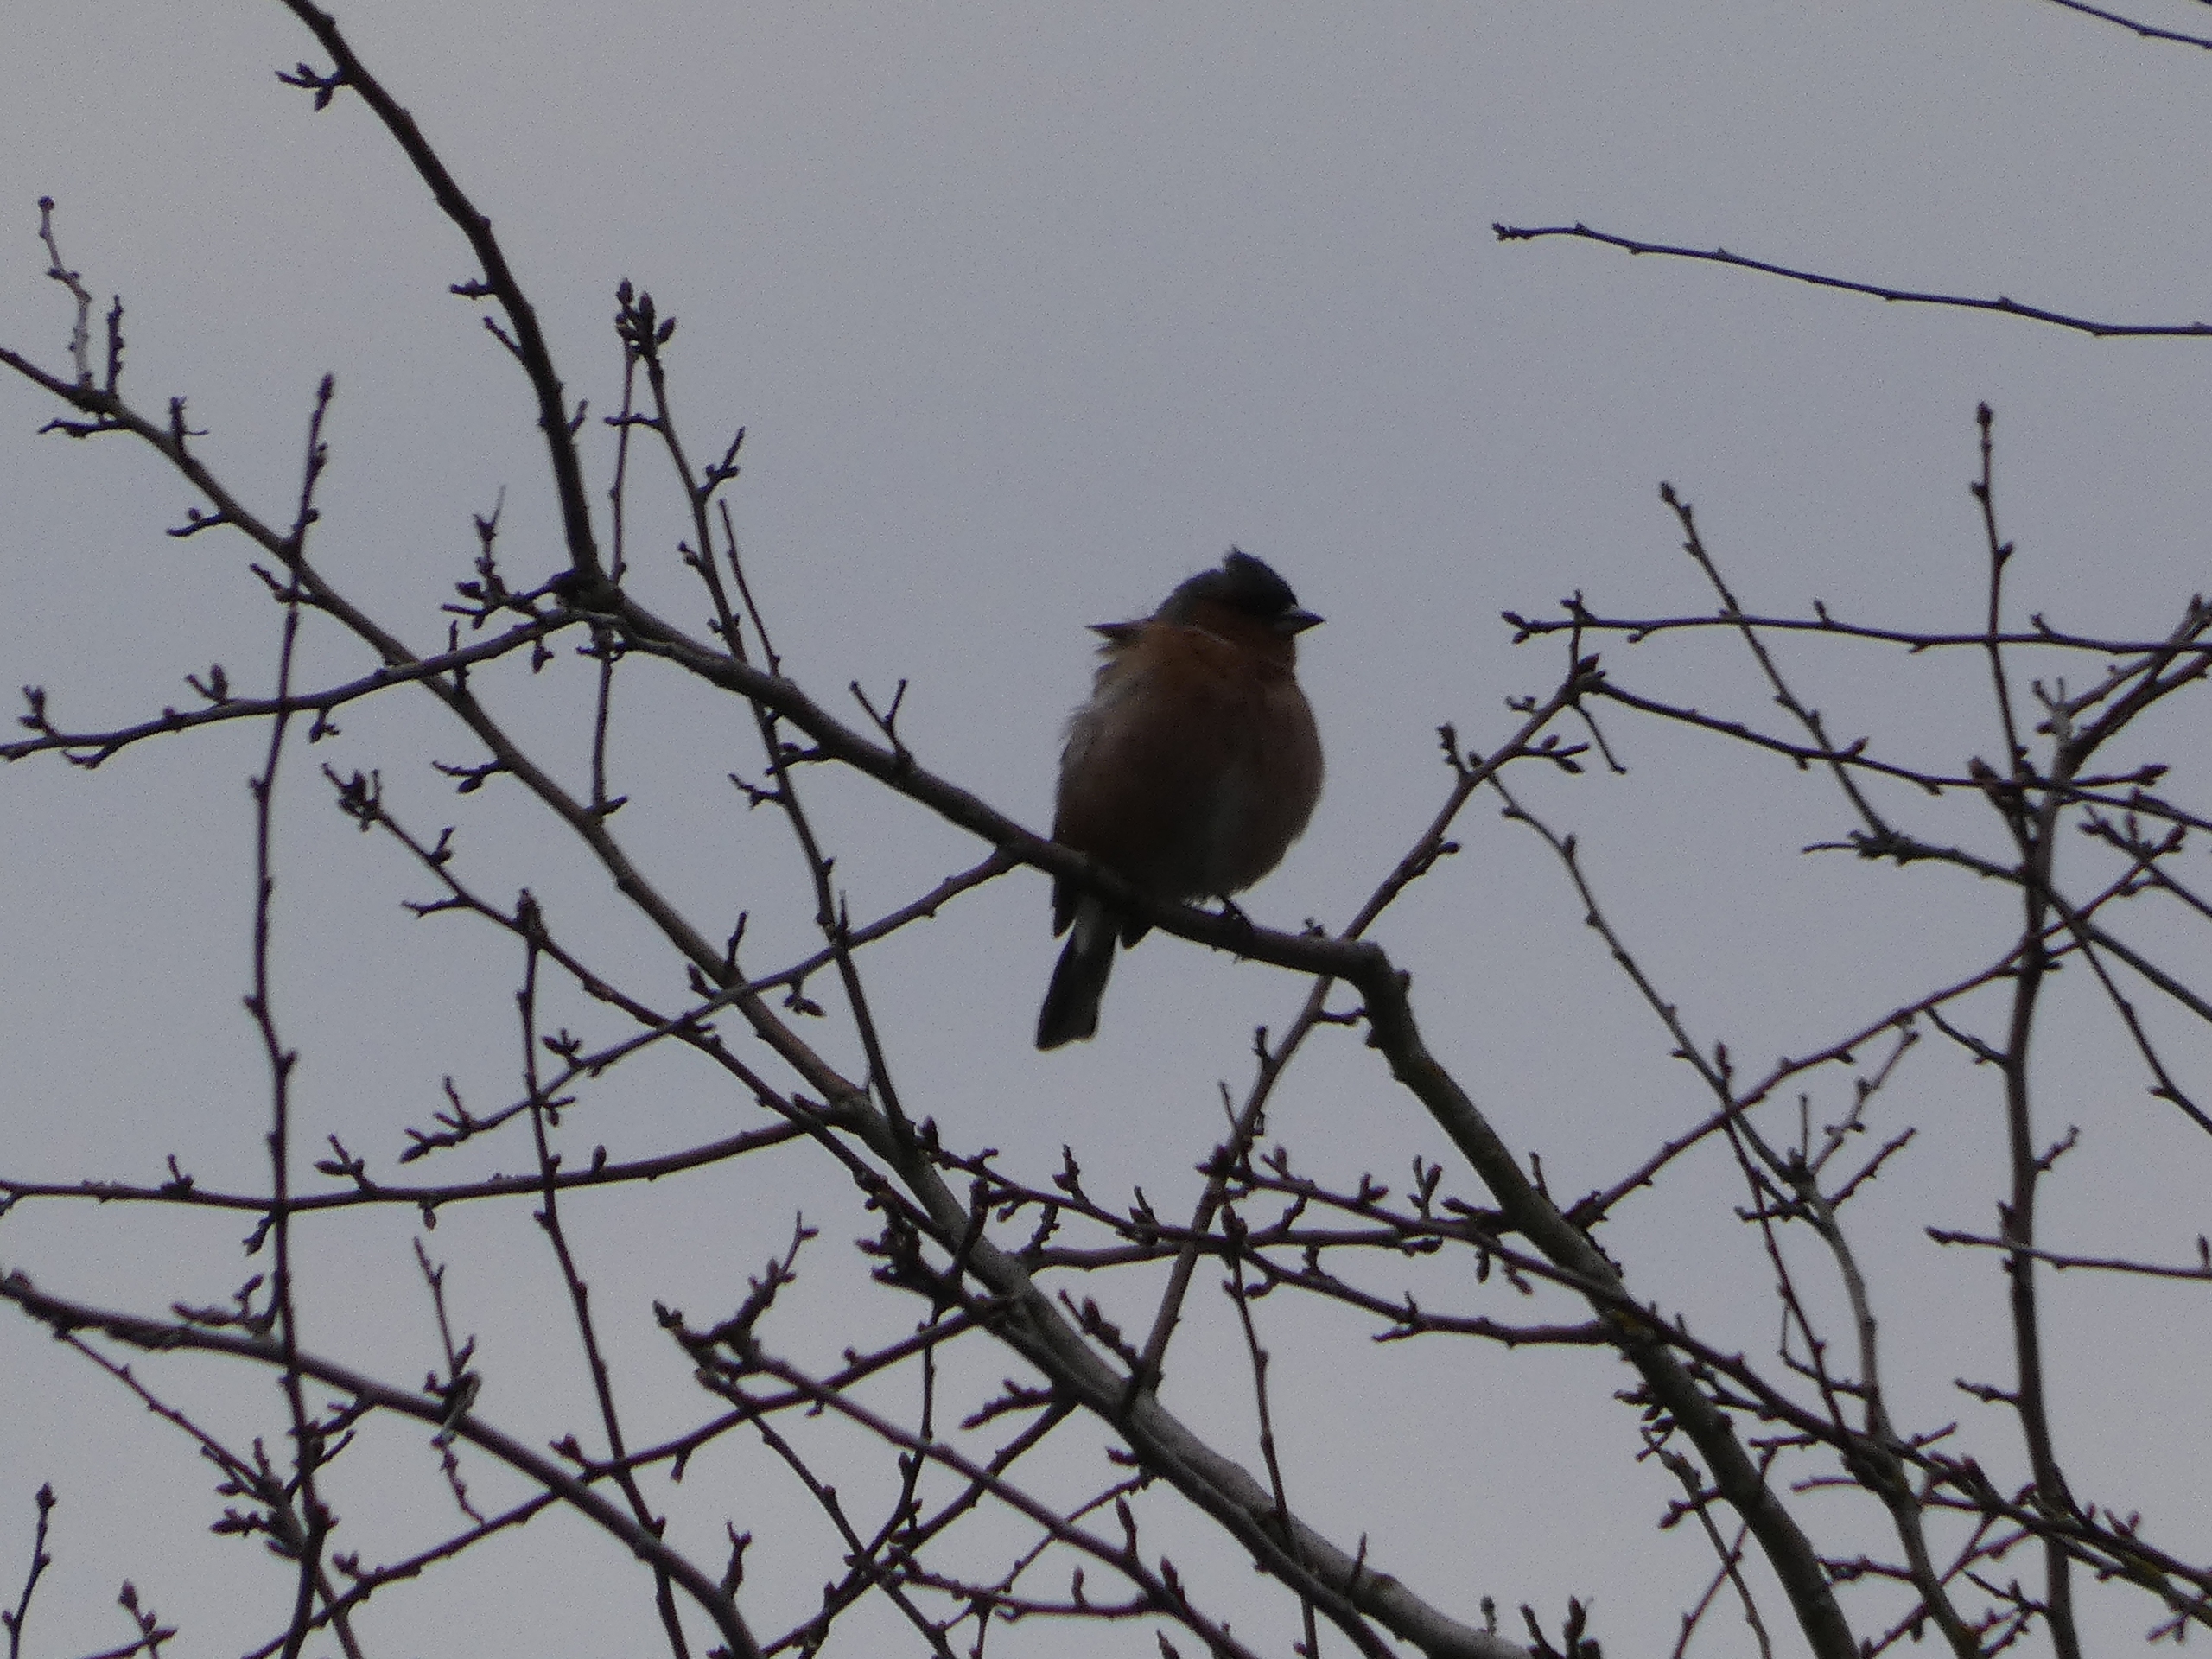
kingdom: Animalia
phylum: Chordata
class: Aves
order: Passeriformes
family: Fringillidae
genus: Fringilla
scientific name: Fringilla coelebs
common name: Bogfinke
